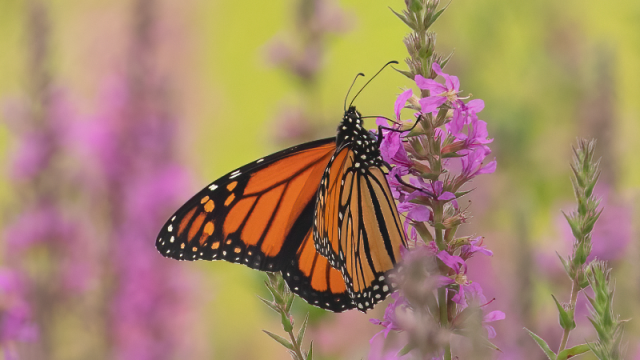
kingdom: Animalia
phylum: Arthropoda
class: Insecta
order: Lepidoptera
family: Nymphalidae
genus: Danaus
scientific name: Danaus plexippus
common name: Monarch
